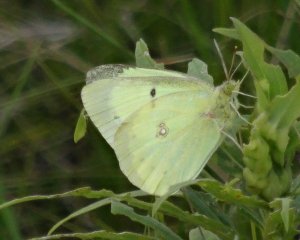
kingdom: Animalia
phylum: Arthropoda
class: Insecta
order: Lepidoptera
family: Pieridae
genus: Colias
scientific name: Colias philodice
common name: Clouded Sulphur
